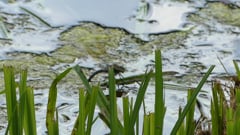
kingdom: Animalia
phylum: Arthropoda
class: Insecta
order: Odonata
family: Aeshnidae
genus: Anax
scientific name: Anax imperator
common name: Emperor dragonfly
